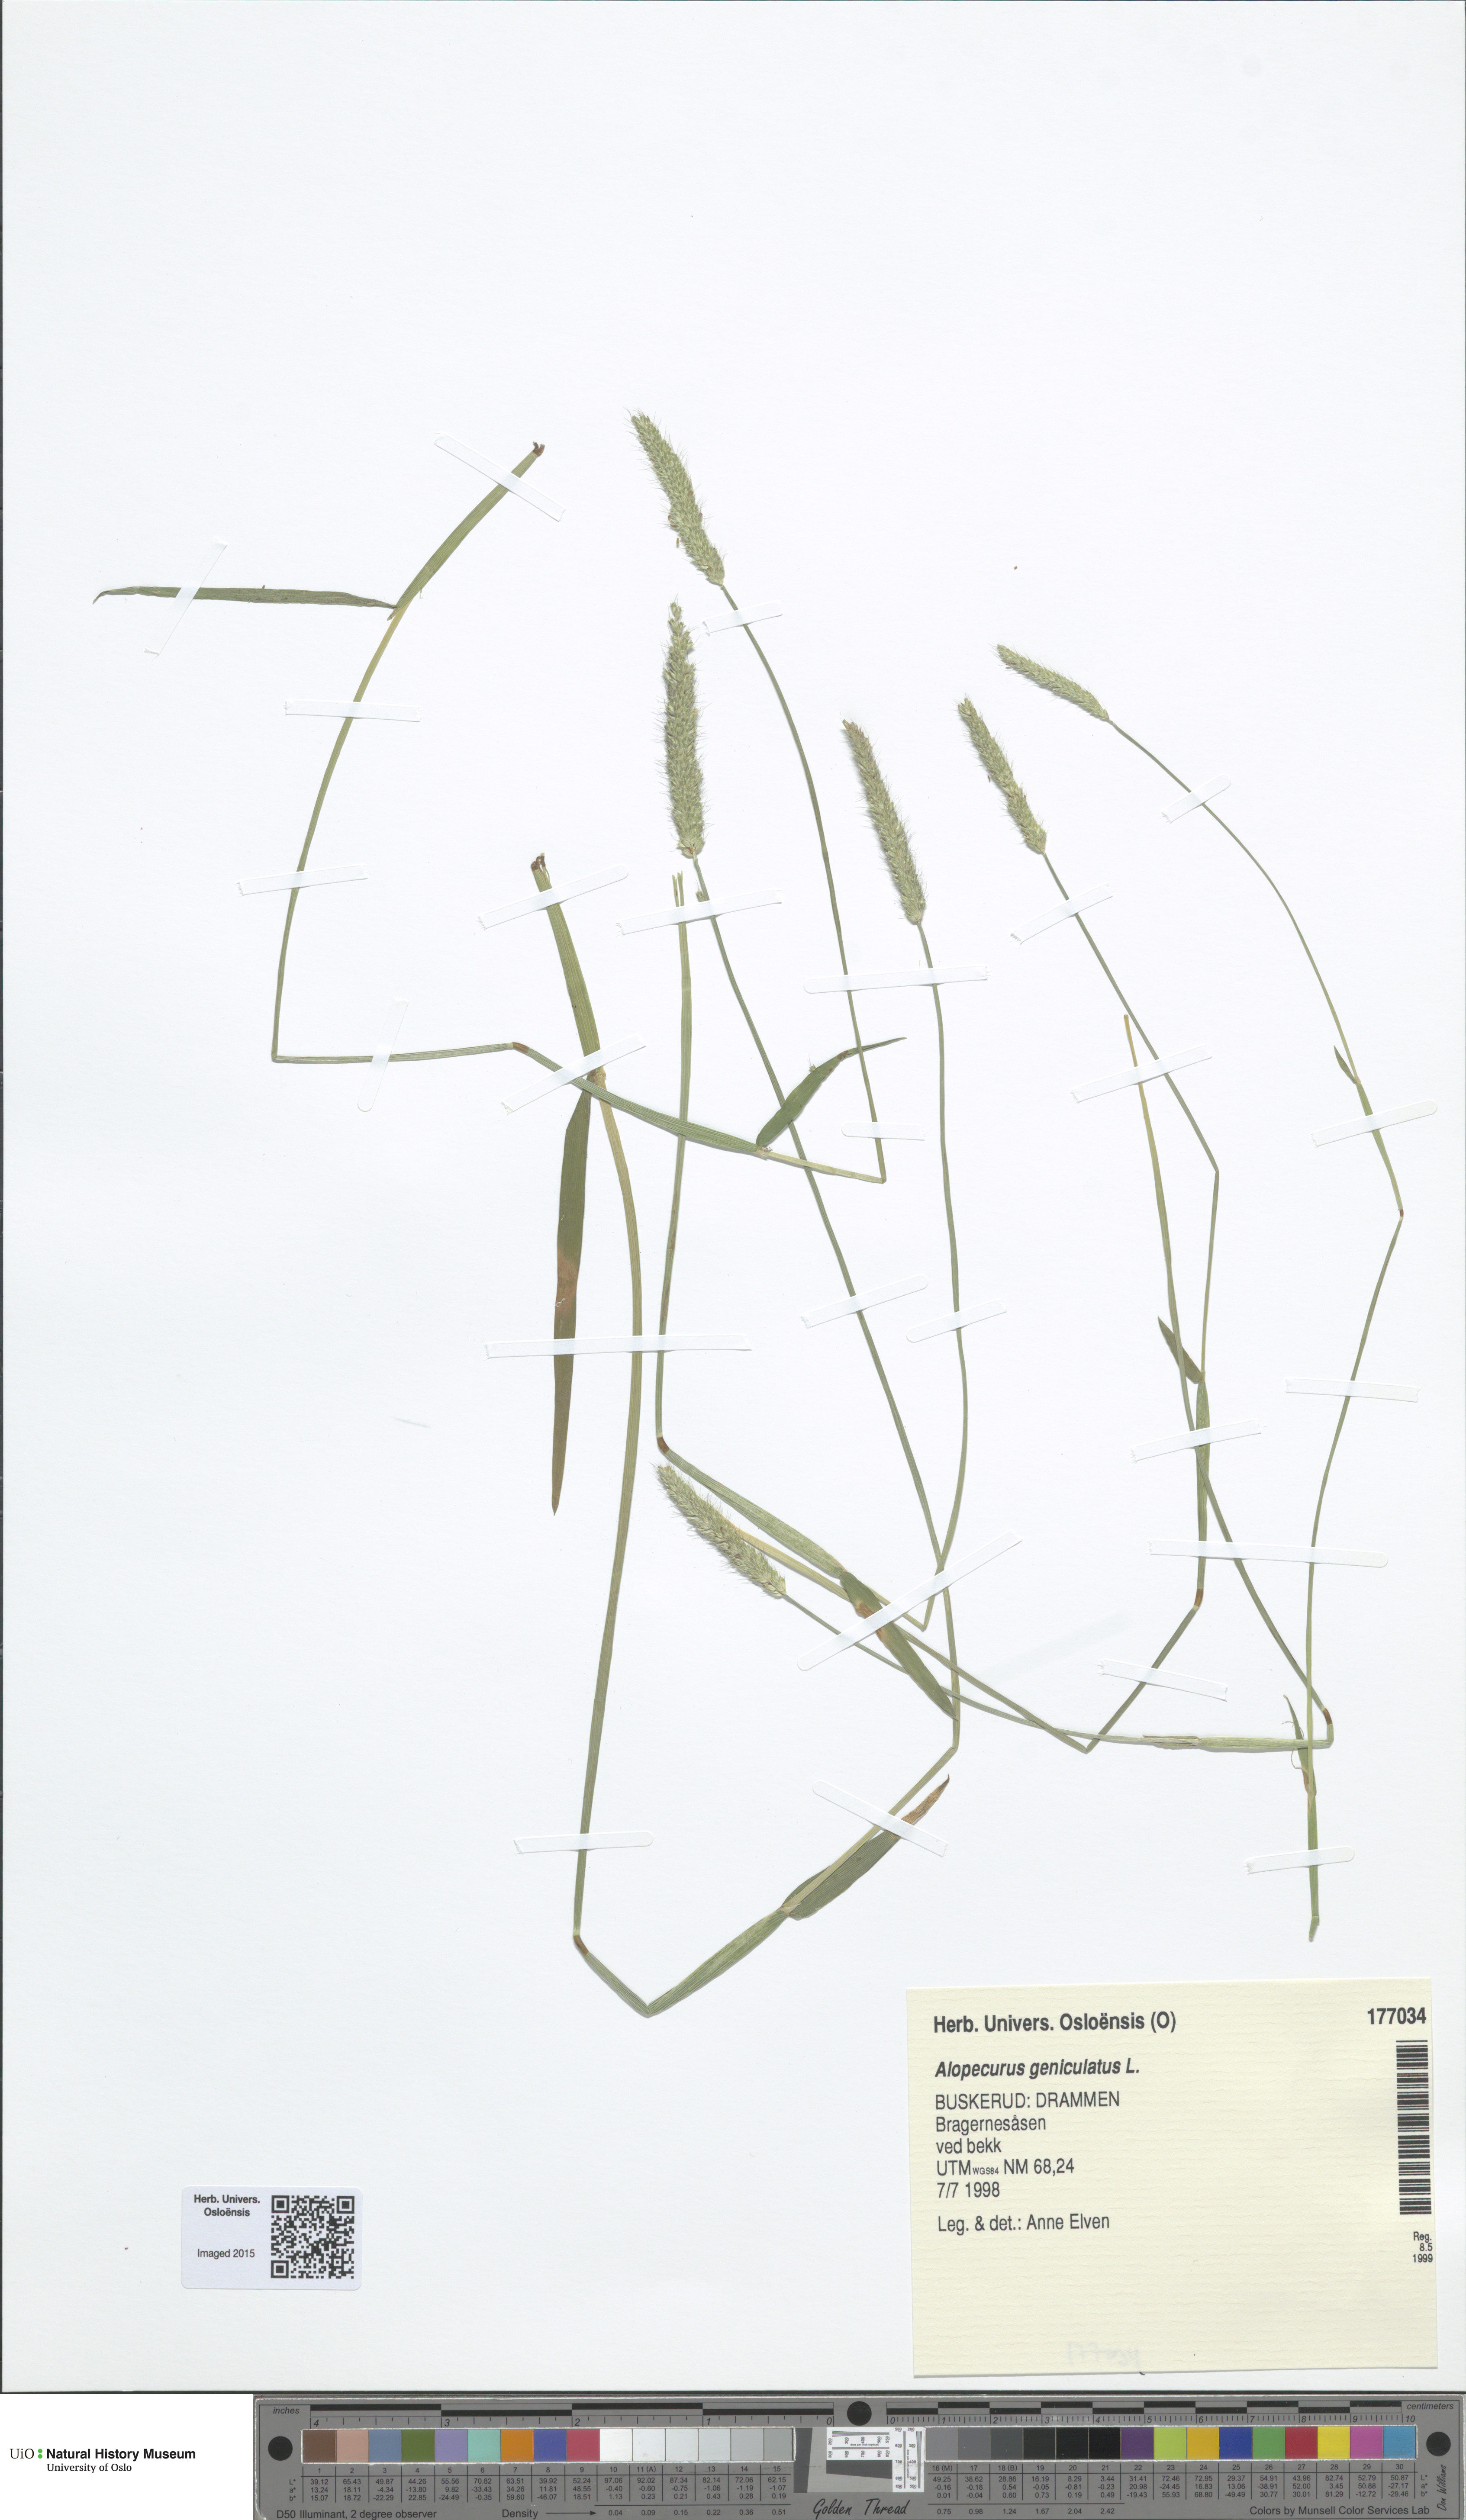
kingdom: Plantae
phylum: Tracheophyta
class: Liliopsida
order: Poales
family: Poaceae
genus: Alopecurus
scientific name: Alopecurus geniculatus
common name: Water foxtail
